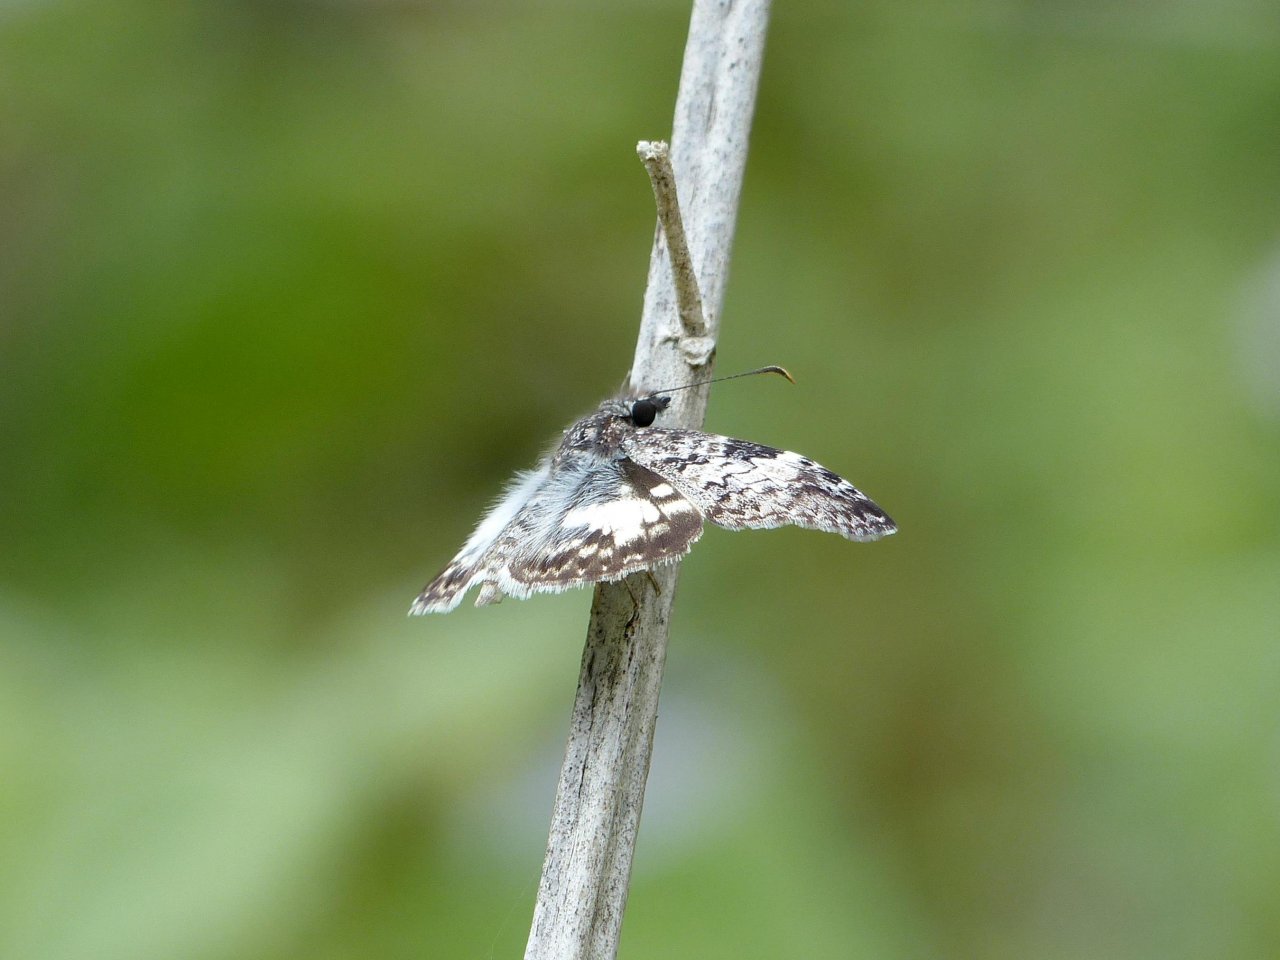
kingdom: Animalia
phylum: Arthropoda
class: Insecta
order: Lepidoptera
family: Hesperiidae
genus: Chiomara
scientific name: Chiomara asychis
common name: White-patched Skipper
